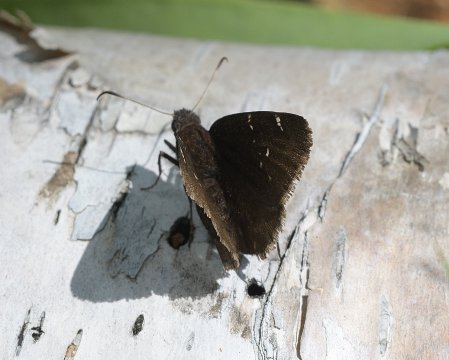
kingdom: Animalia
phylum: Arthropoda
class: Insecta
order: Lepidoptera
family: Hesperiidae
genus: Autochton
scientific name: Autochton
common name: Northern Cloudywing
